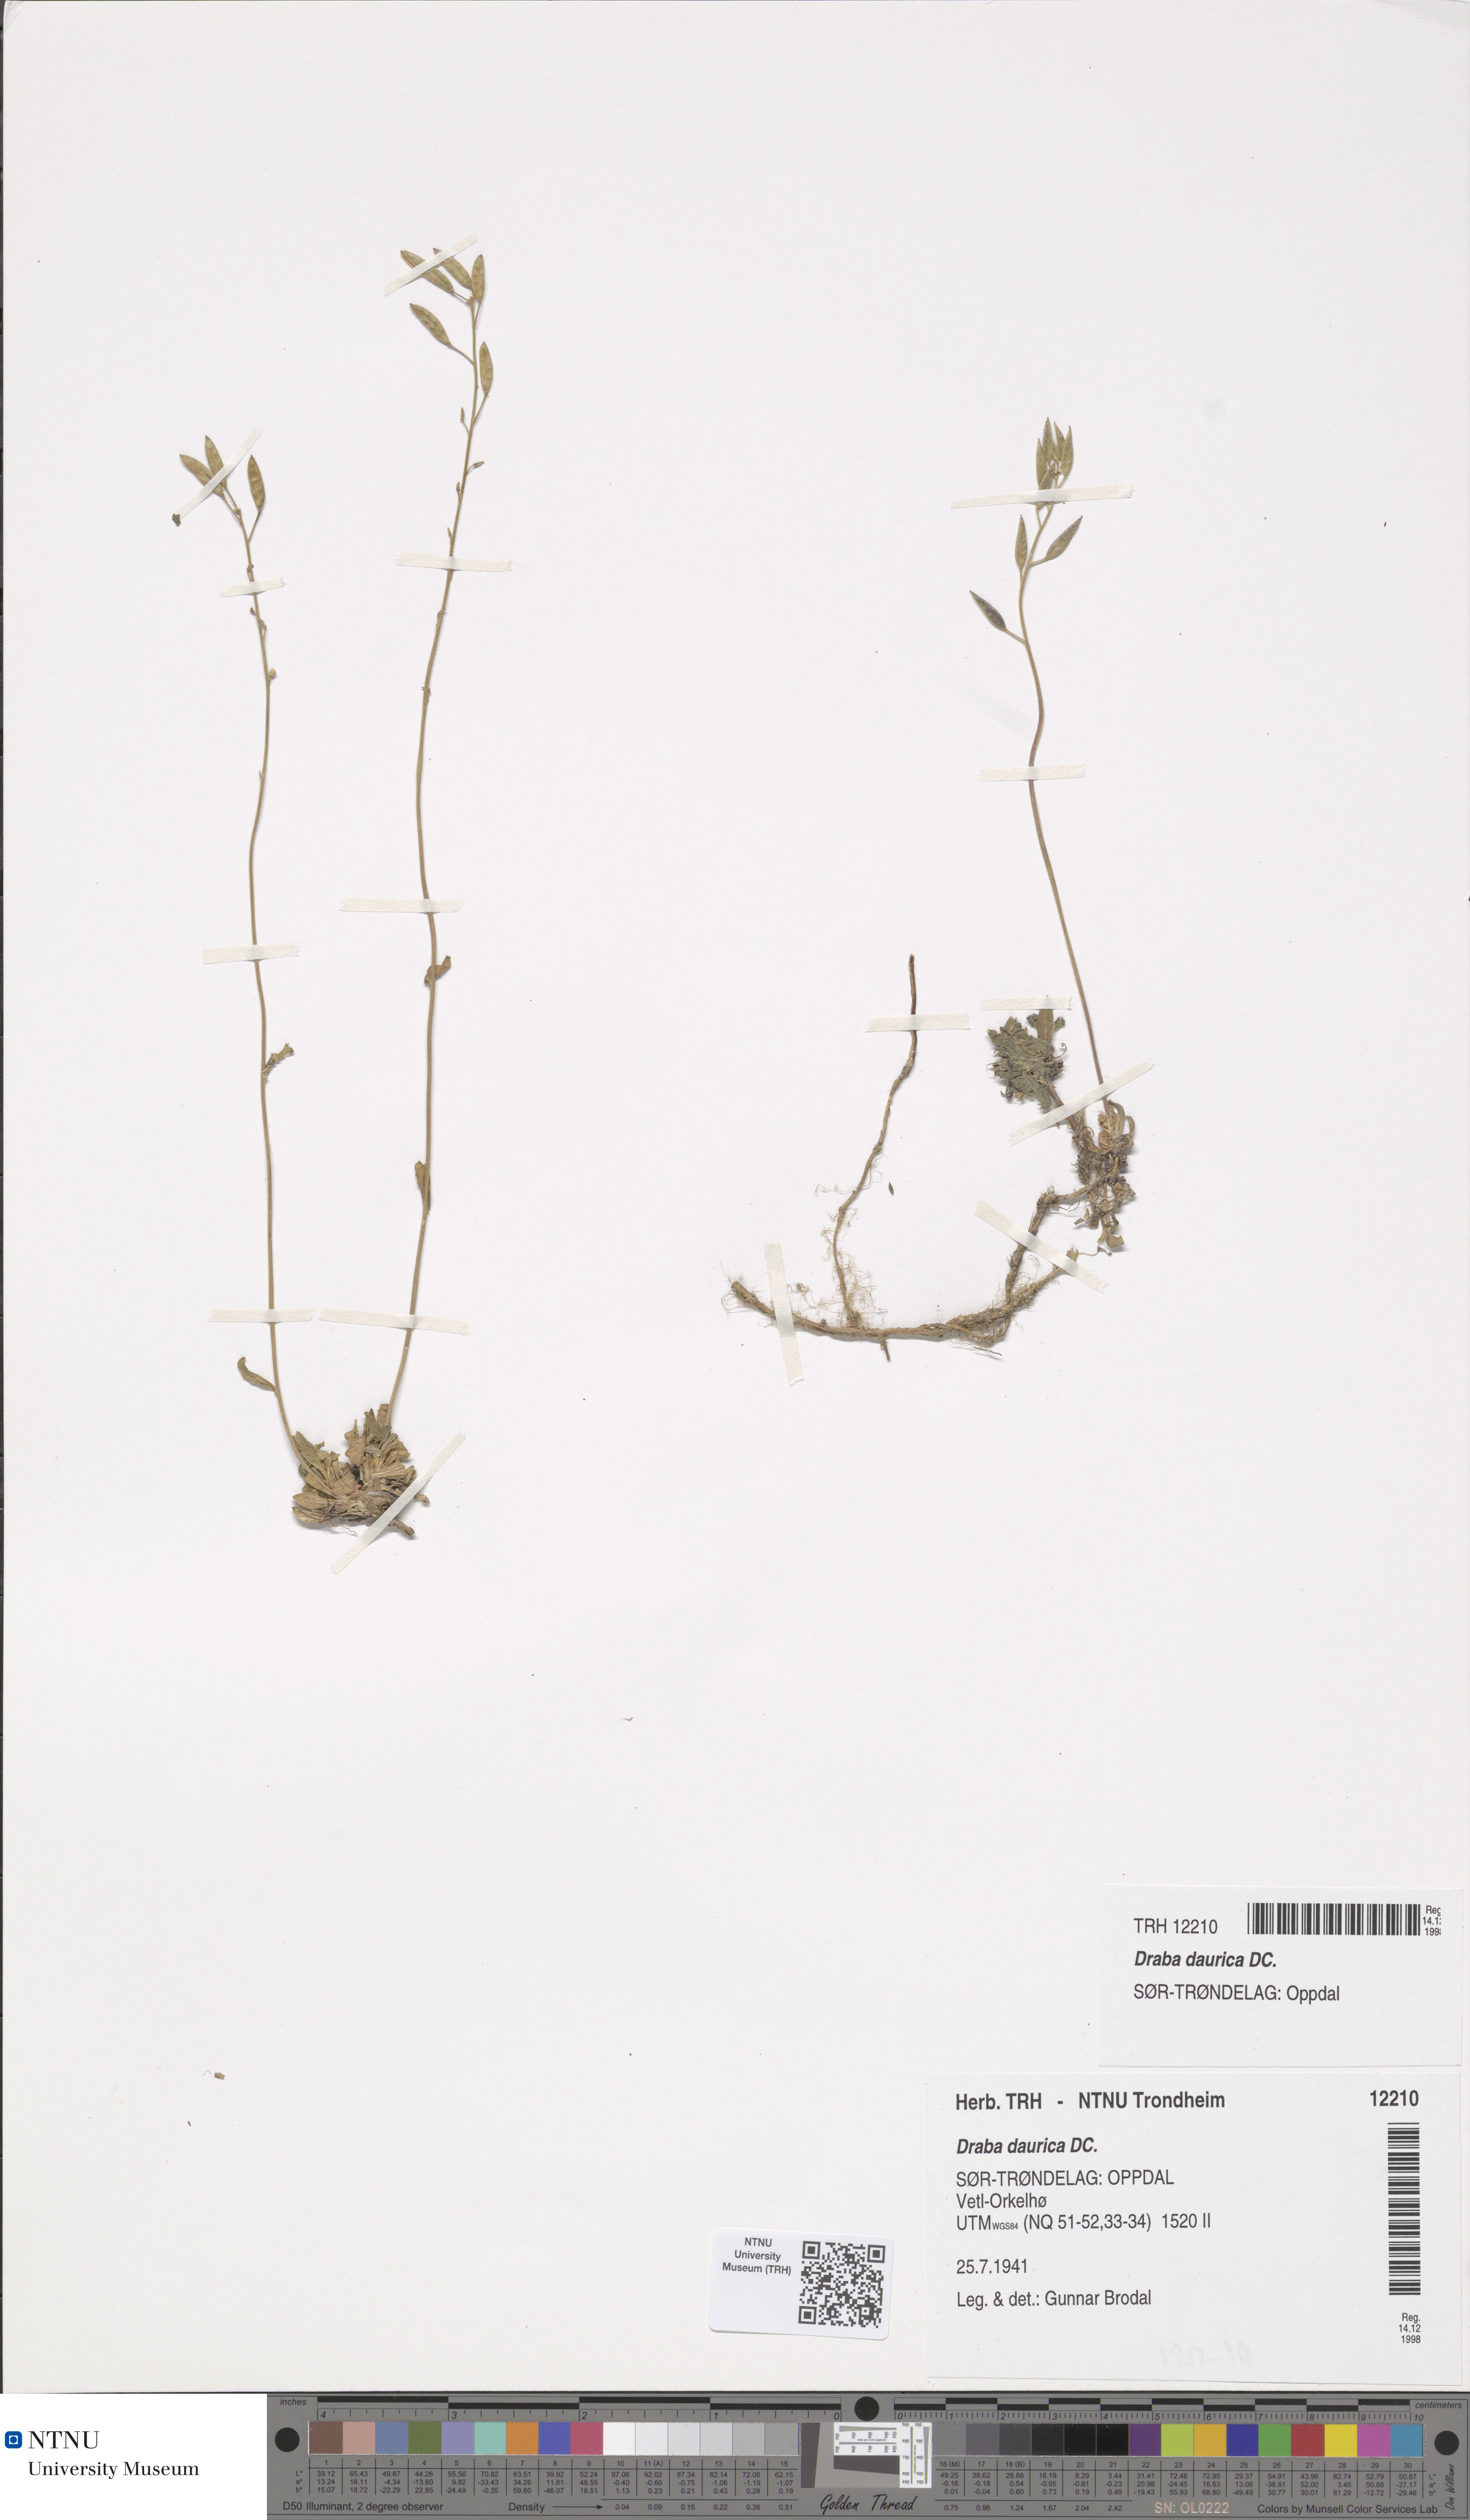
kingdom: Plantae
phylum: Tracheophyta
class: Magnoliopsida
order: Brassicales
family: Brassicaceae
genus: Draba
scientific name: Draba glabella
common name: Glaucous draba
